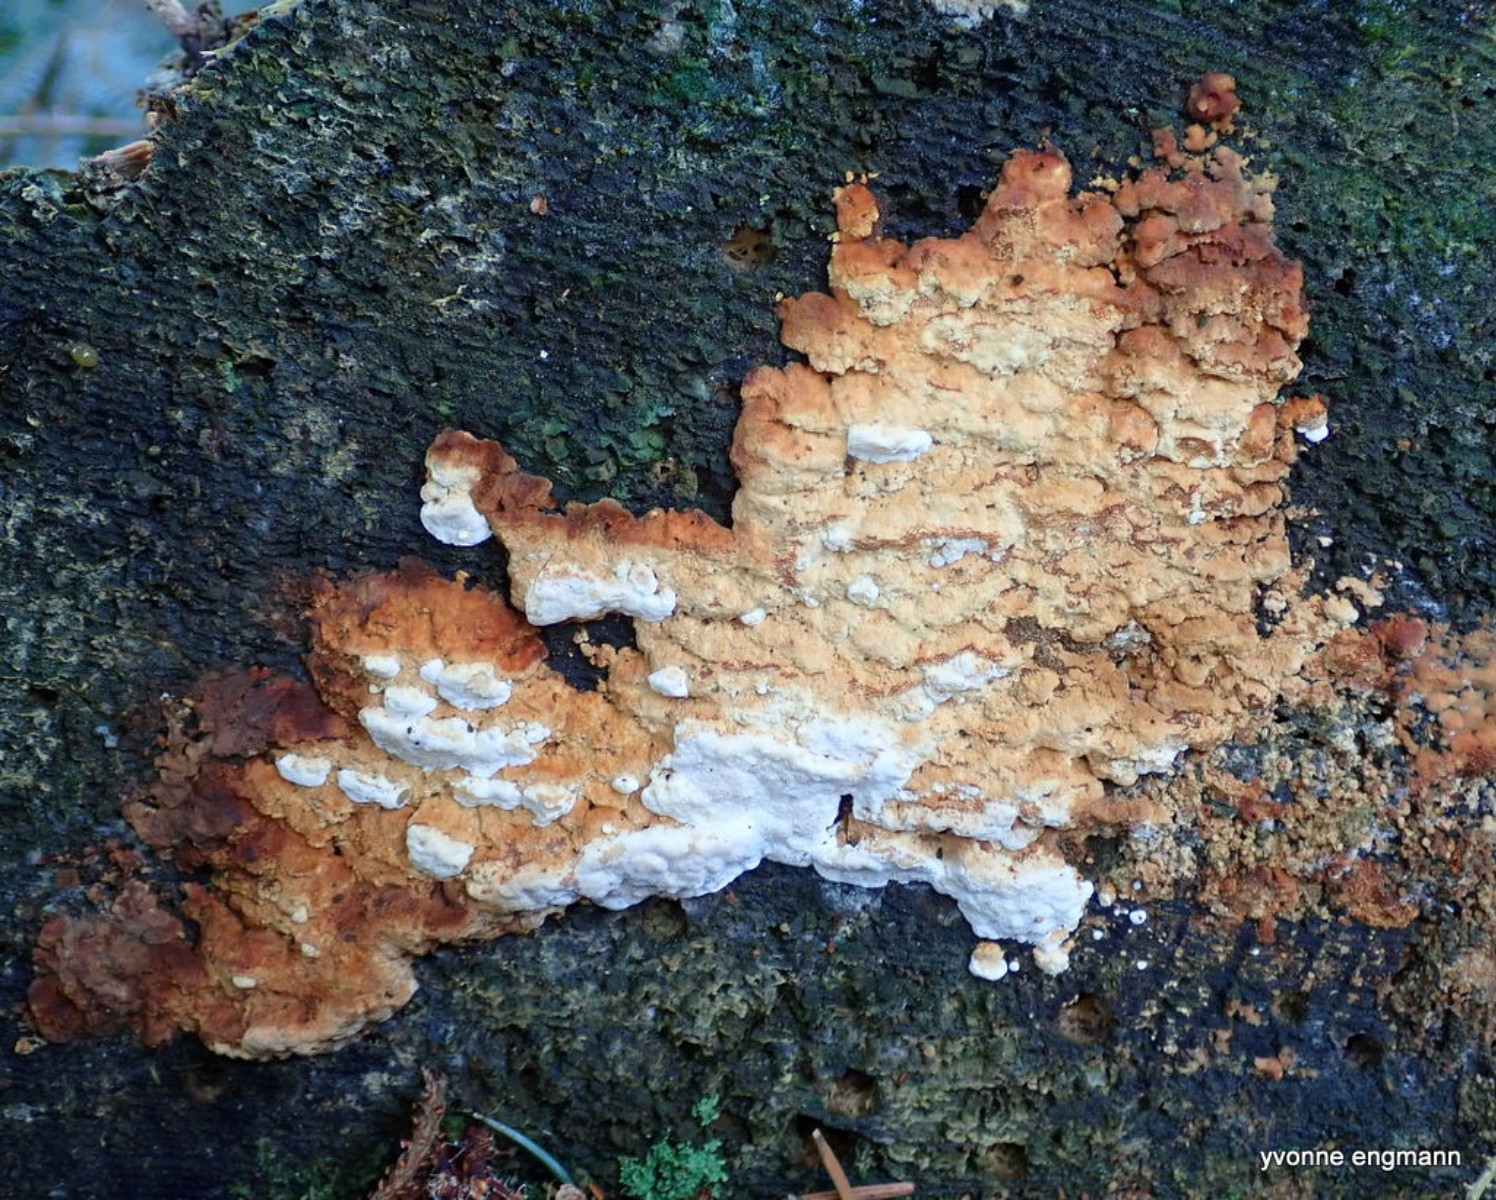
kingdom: Fungi
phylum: Basidiomycota
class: Agaricomycetes
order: Polyporales
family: Fomitopsidaceae
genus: Neoantrodia
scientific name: Neoantrodia serialis
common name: række-sejporesvamp
